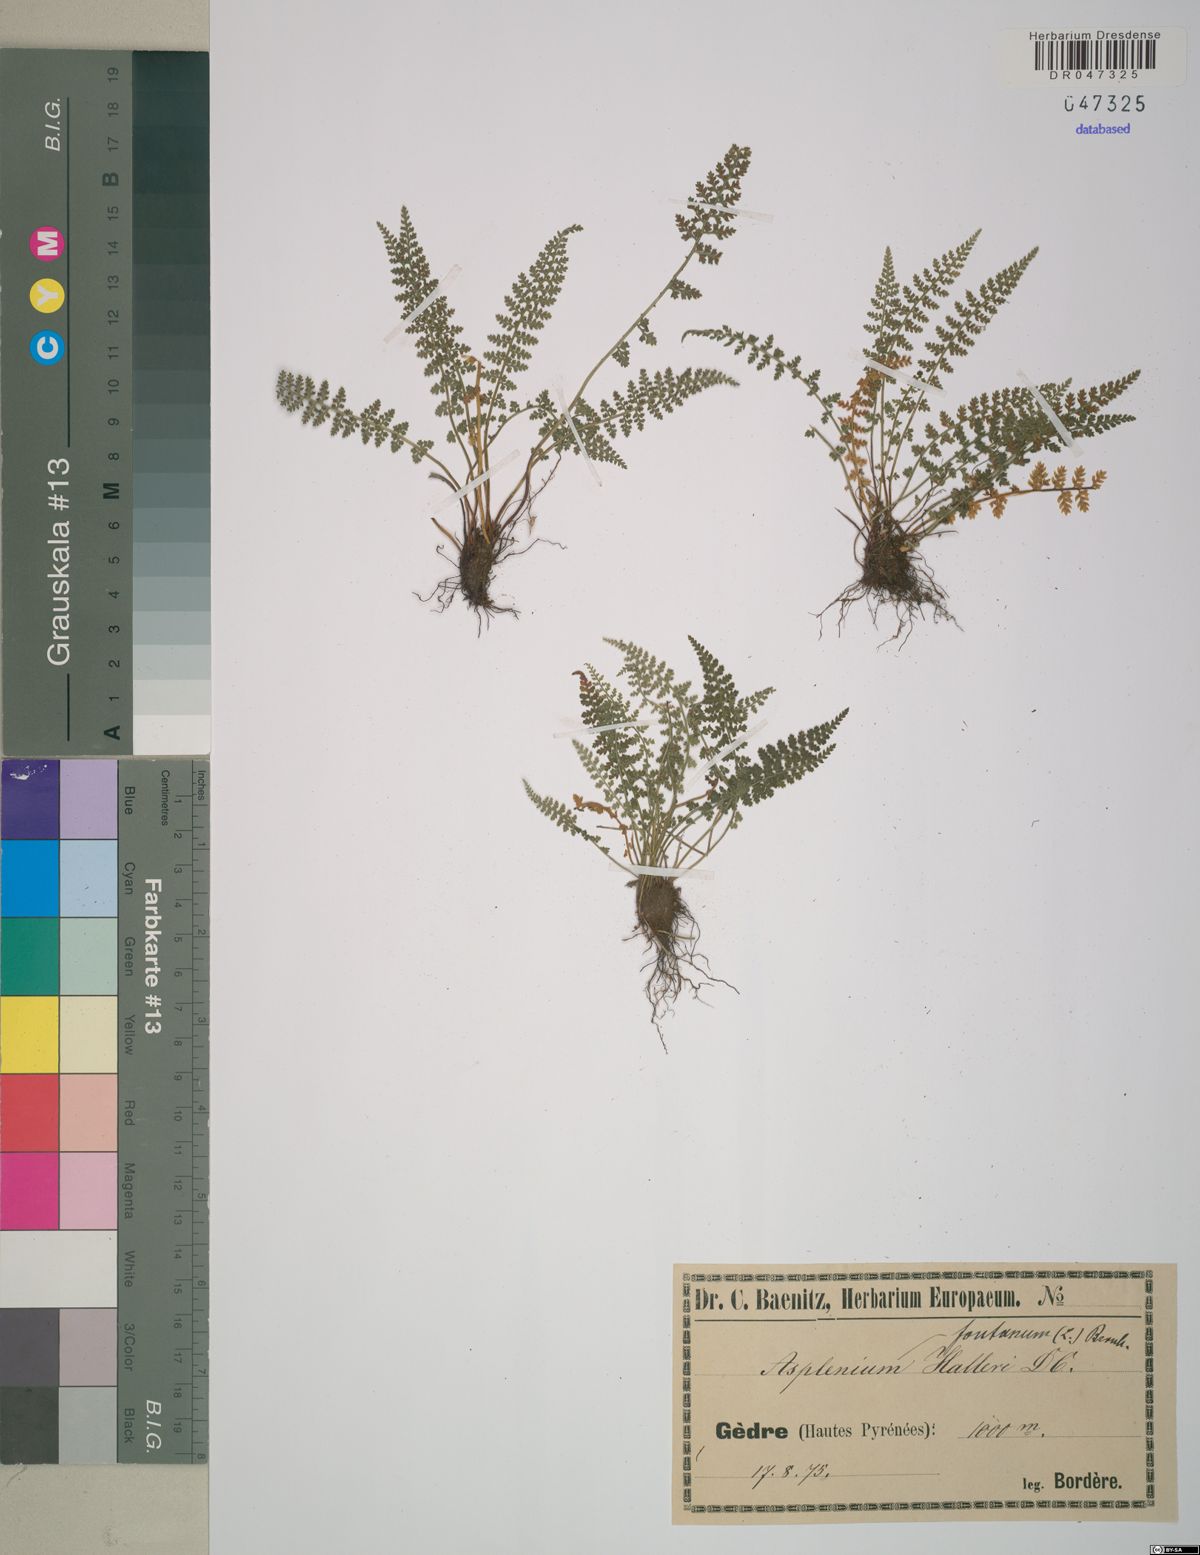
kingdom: Plantae
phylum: Tracheophyta
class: Polypodiopsida
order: Polypodiales
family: Aspleniaceae
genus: Asplenium
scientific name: Asplenium fontanum
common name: Fountain spleenwort
